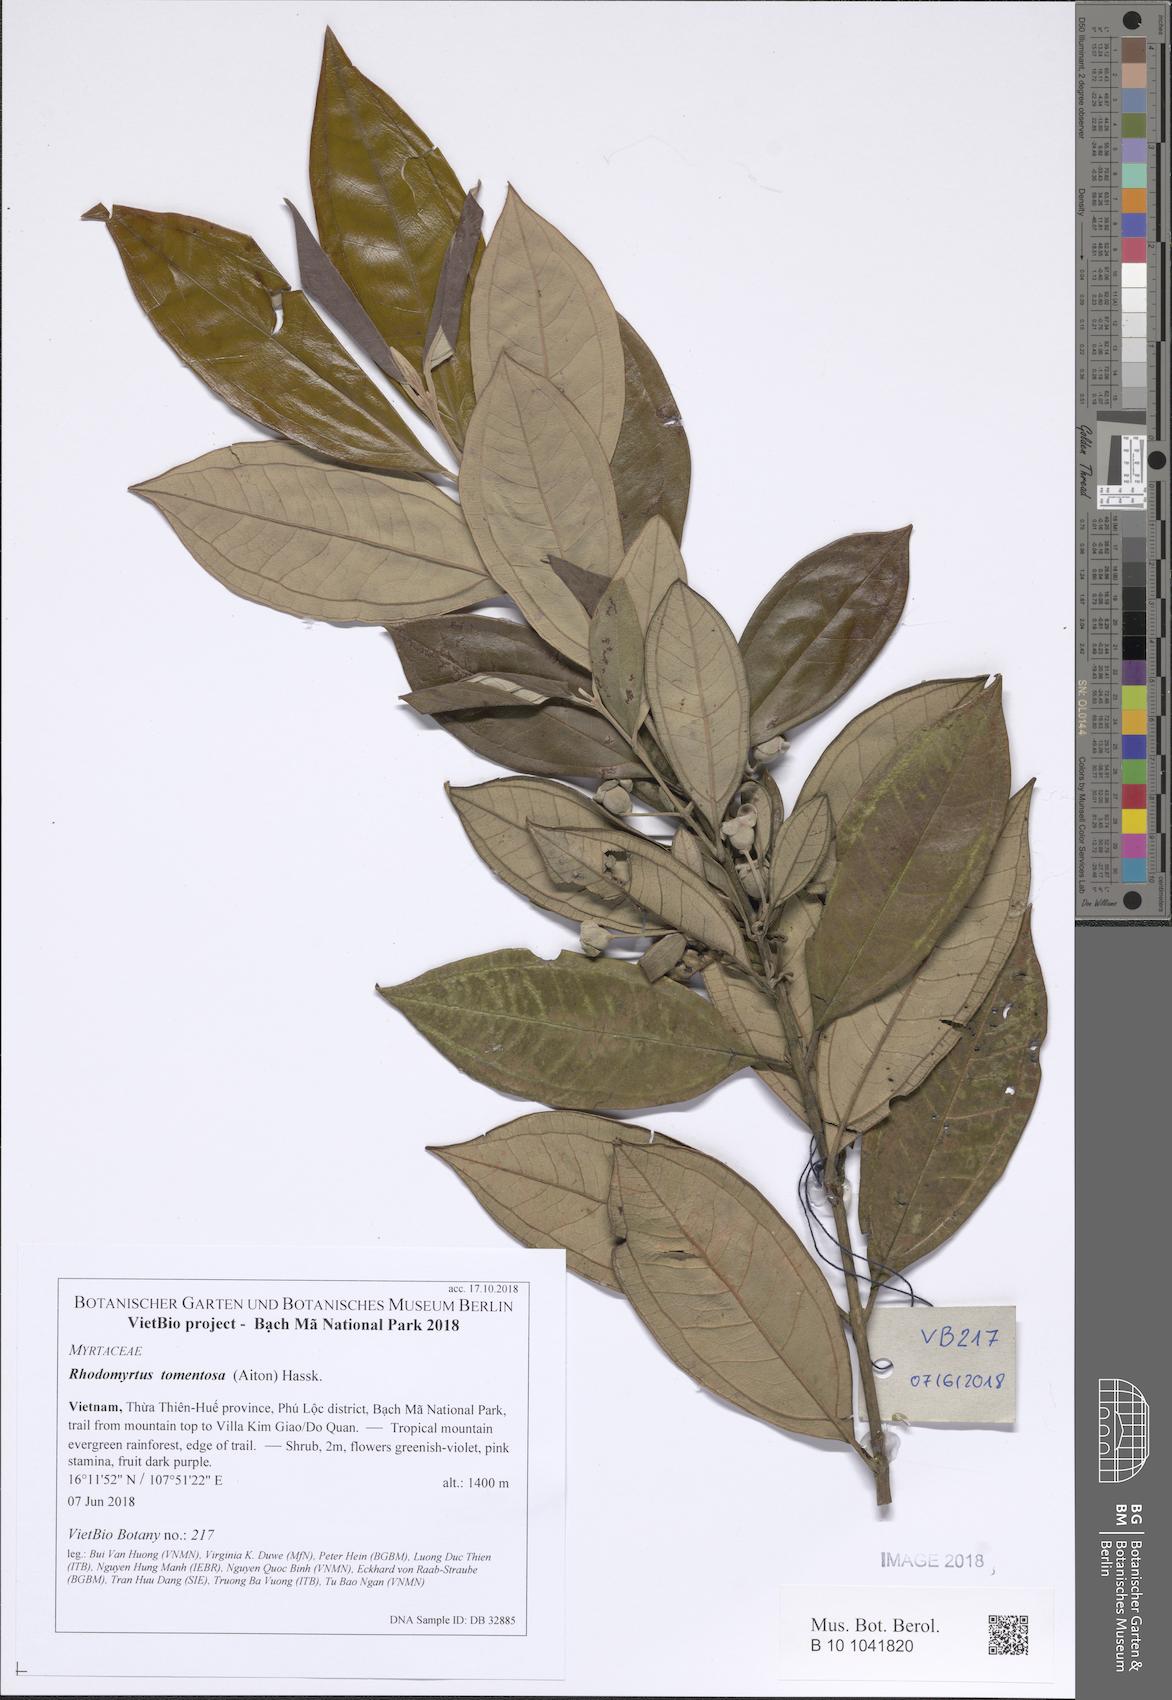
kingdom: Plantae
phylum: Tracheophyta
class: Magnoliopsida
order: Myrtales
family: Myrtaceae
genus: Rhodomyrtus
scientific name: Rhodomyrtus tomentosa
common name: Rose myrtle
